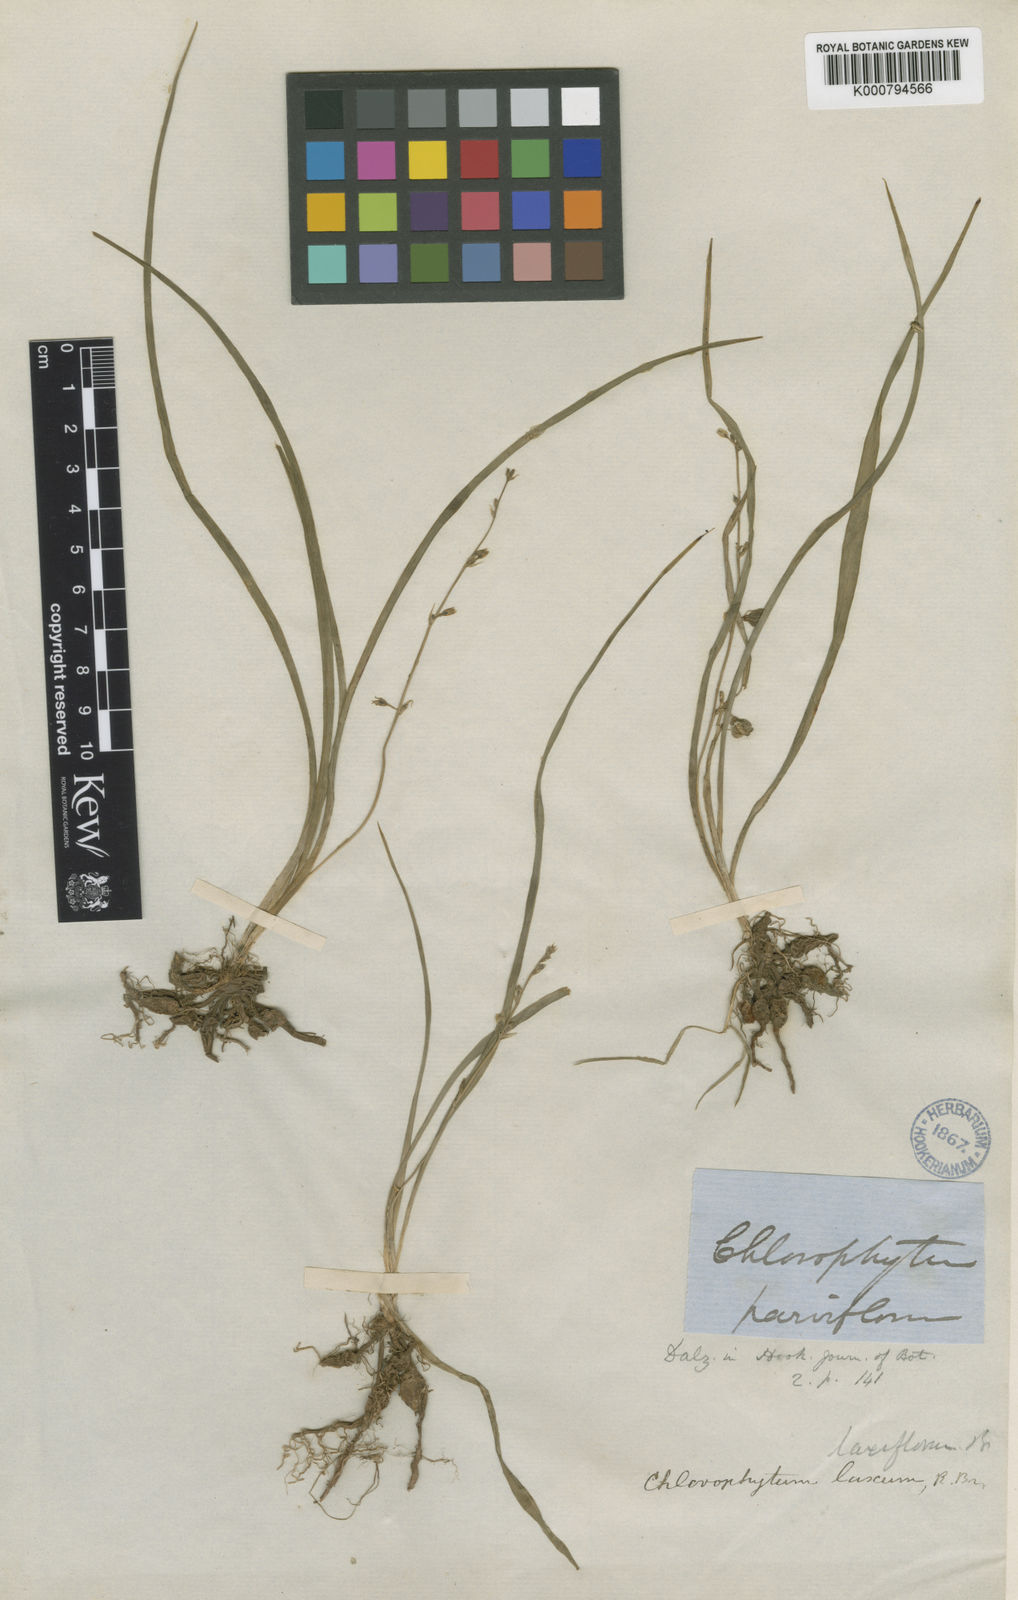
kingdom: Plantae
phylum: Tracheophyta
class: Liliopsida
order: Asparagales
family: Asparagaceae
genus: Chlorophytum
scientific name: Chlorophytum laxum
